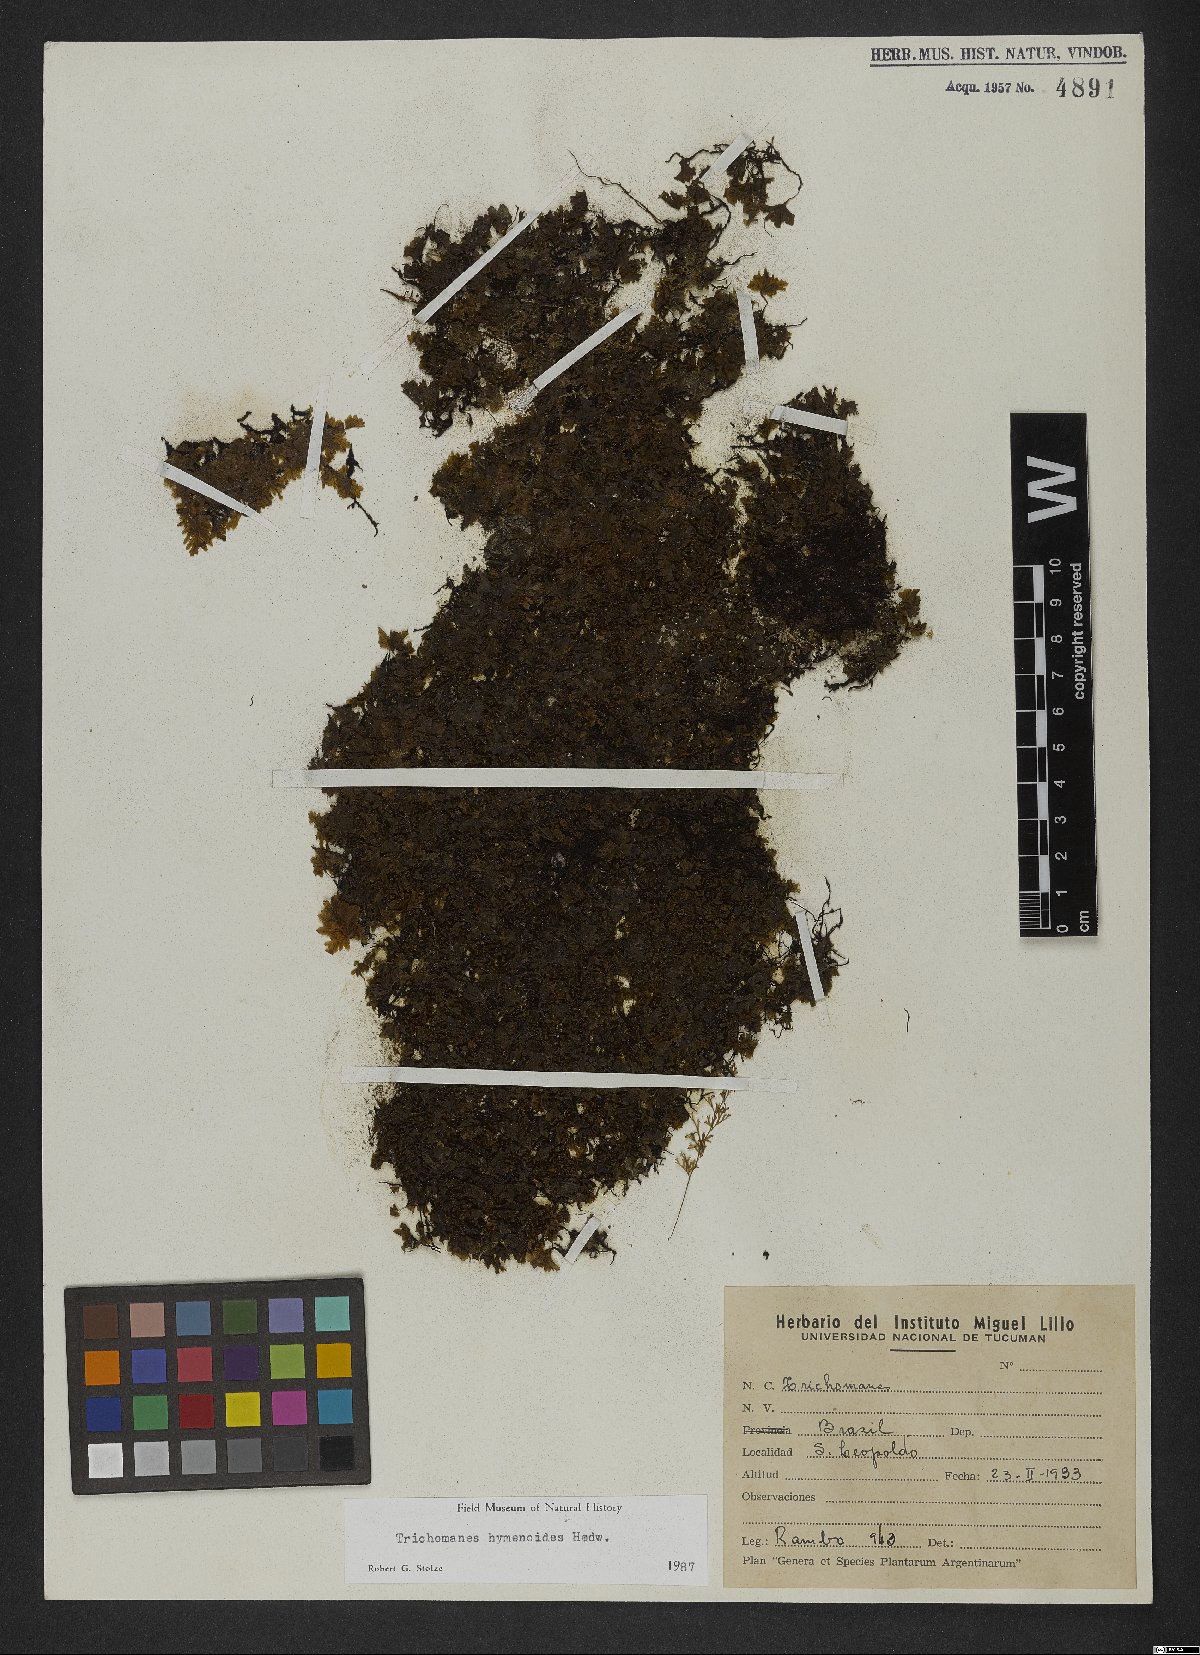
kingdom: Plantae
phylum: Tracheophyta
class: Polypodiopsida
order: Hymenophyllales
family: Hymenophyllaceae
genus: Didymoglossum
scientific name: Didymoglossum hymenoides
